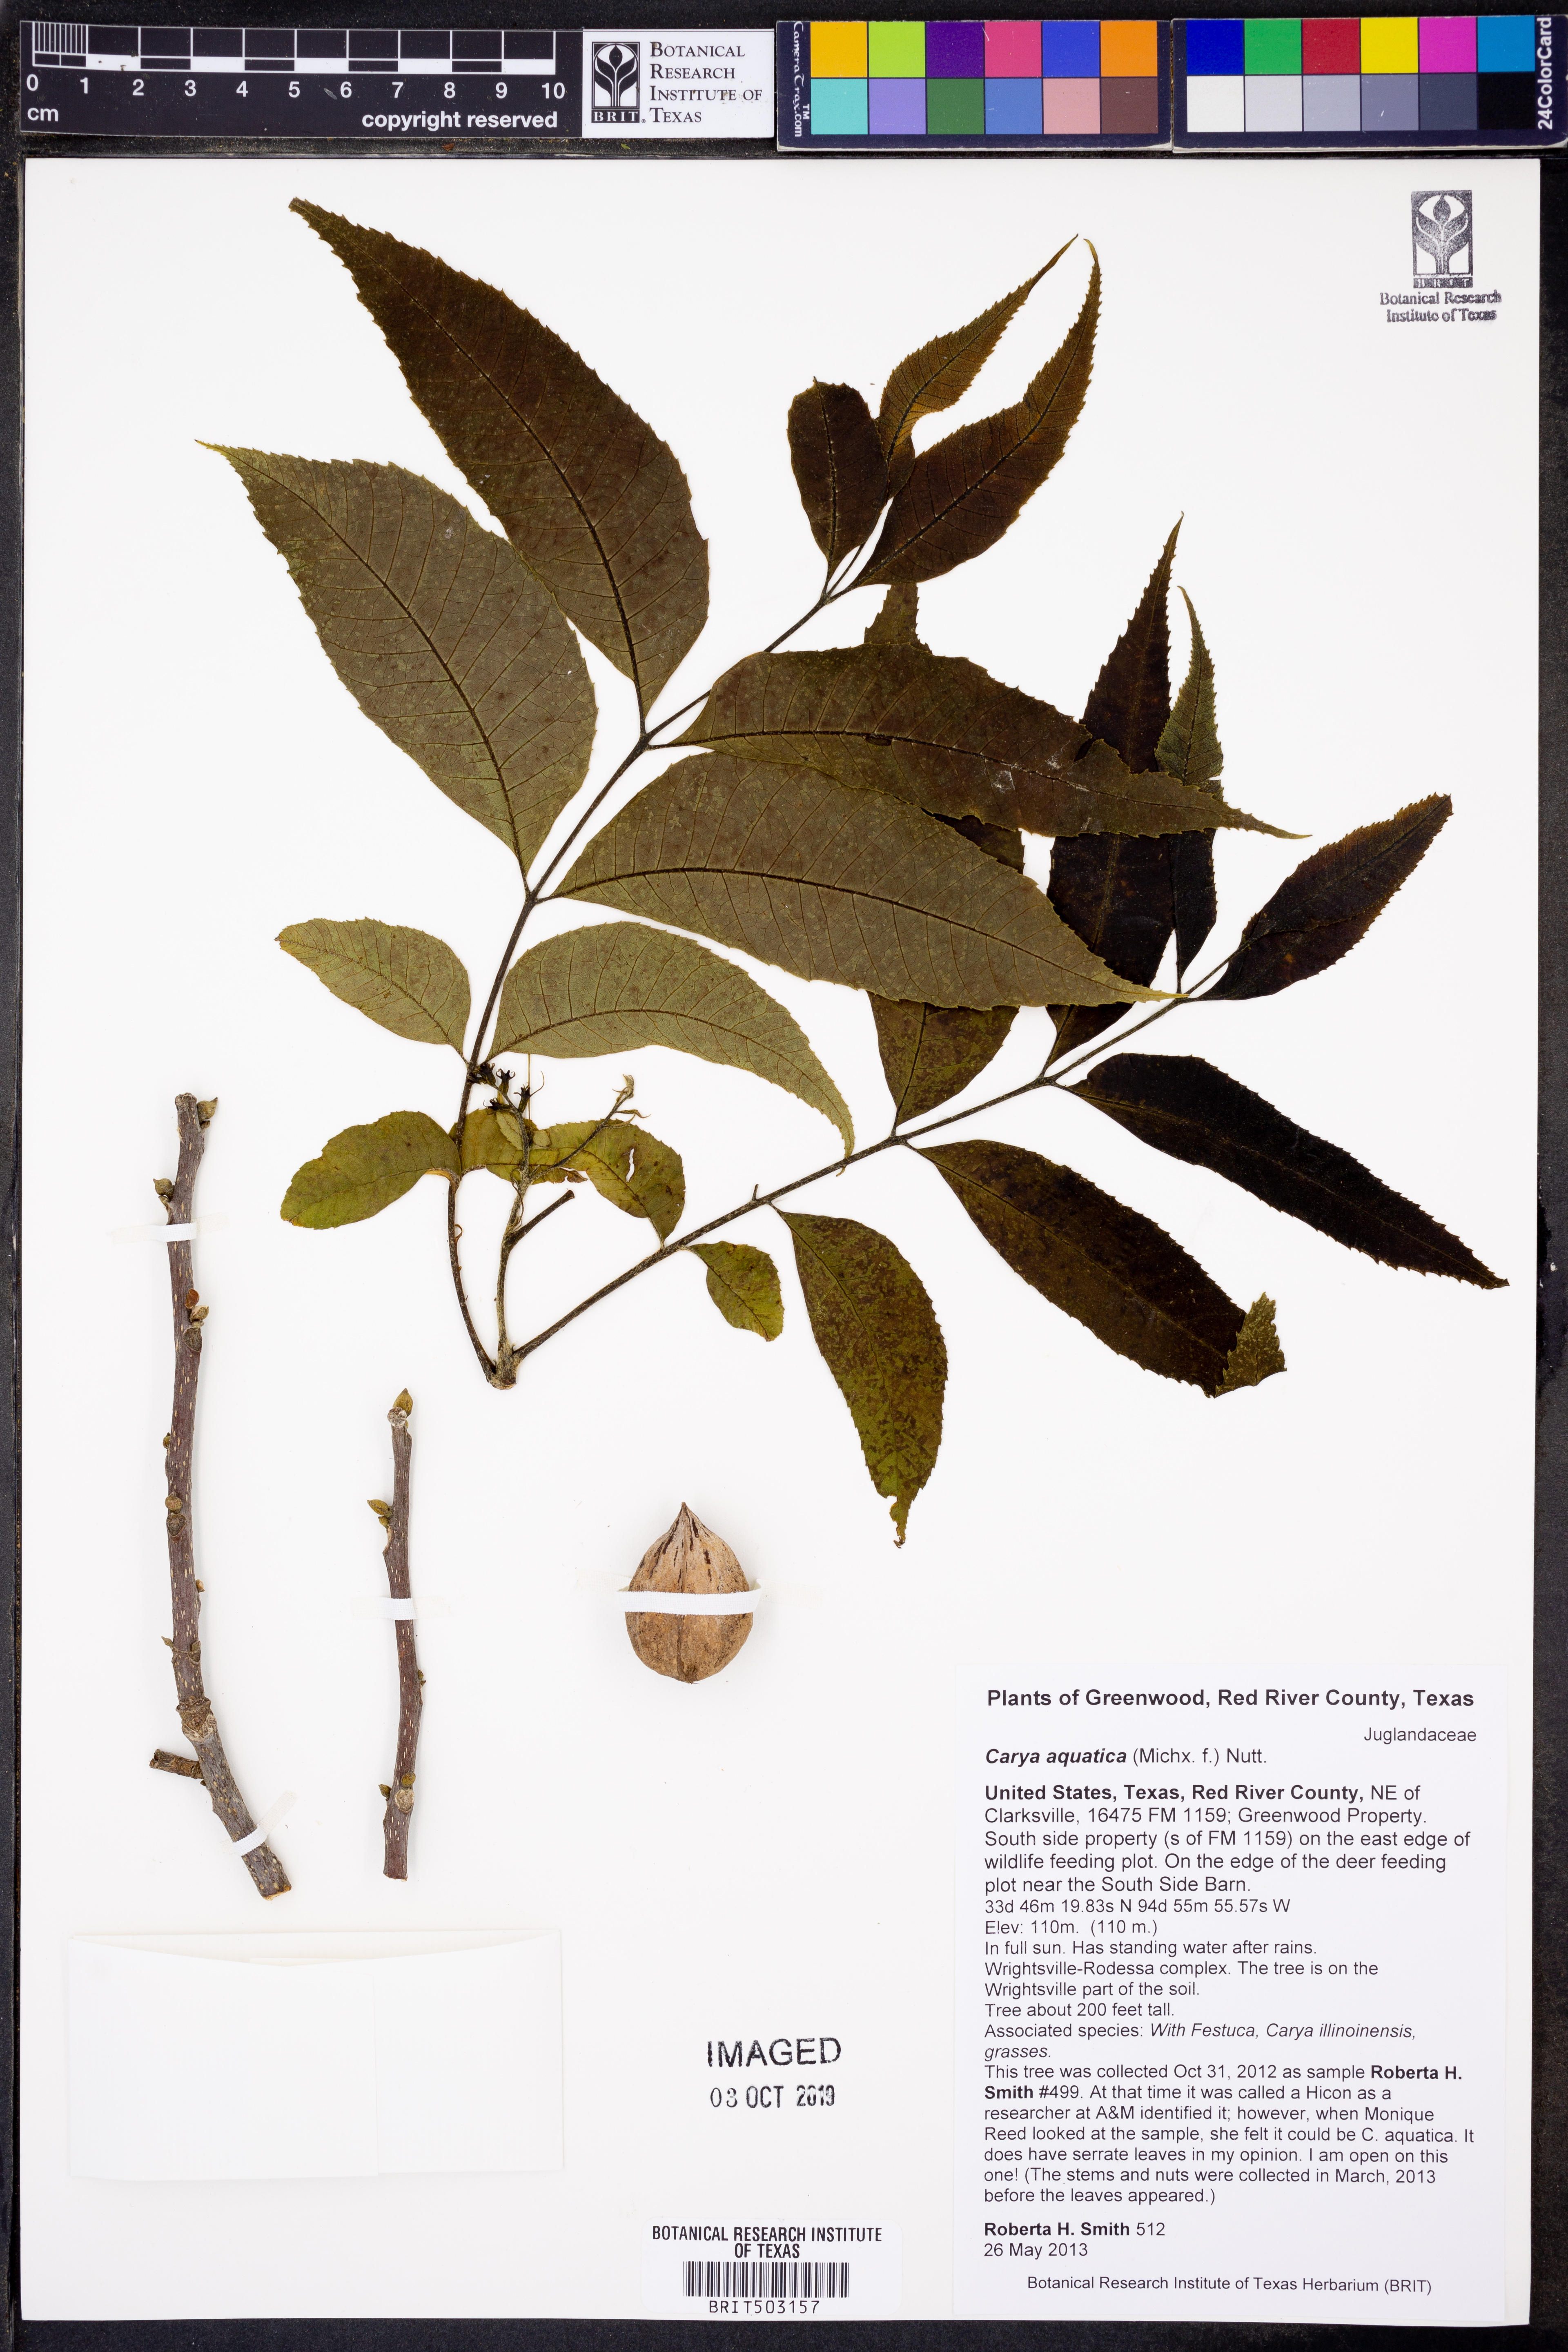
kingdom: Plantae
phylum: Tracheophyta
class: Magnoliopsida
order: Fagales
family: Juglandaceae
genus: Carya
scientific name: Carya aquatica
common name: Water hickory
